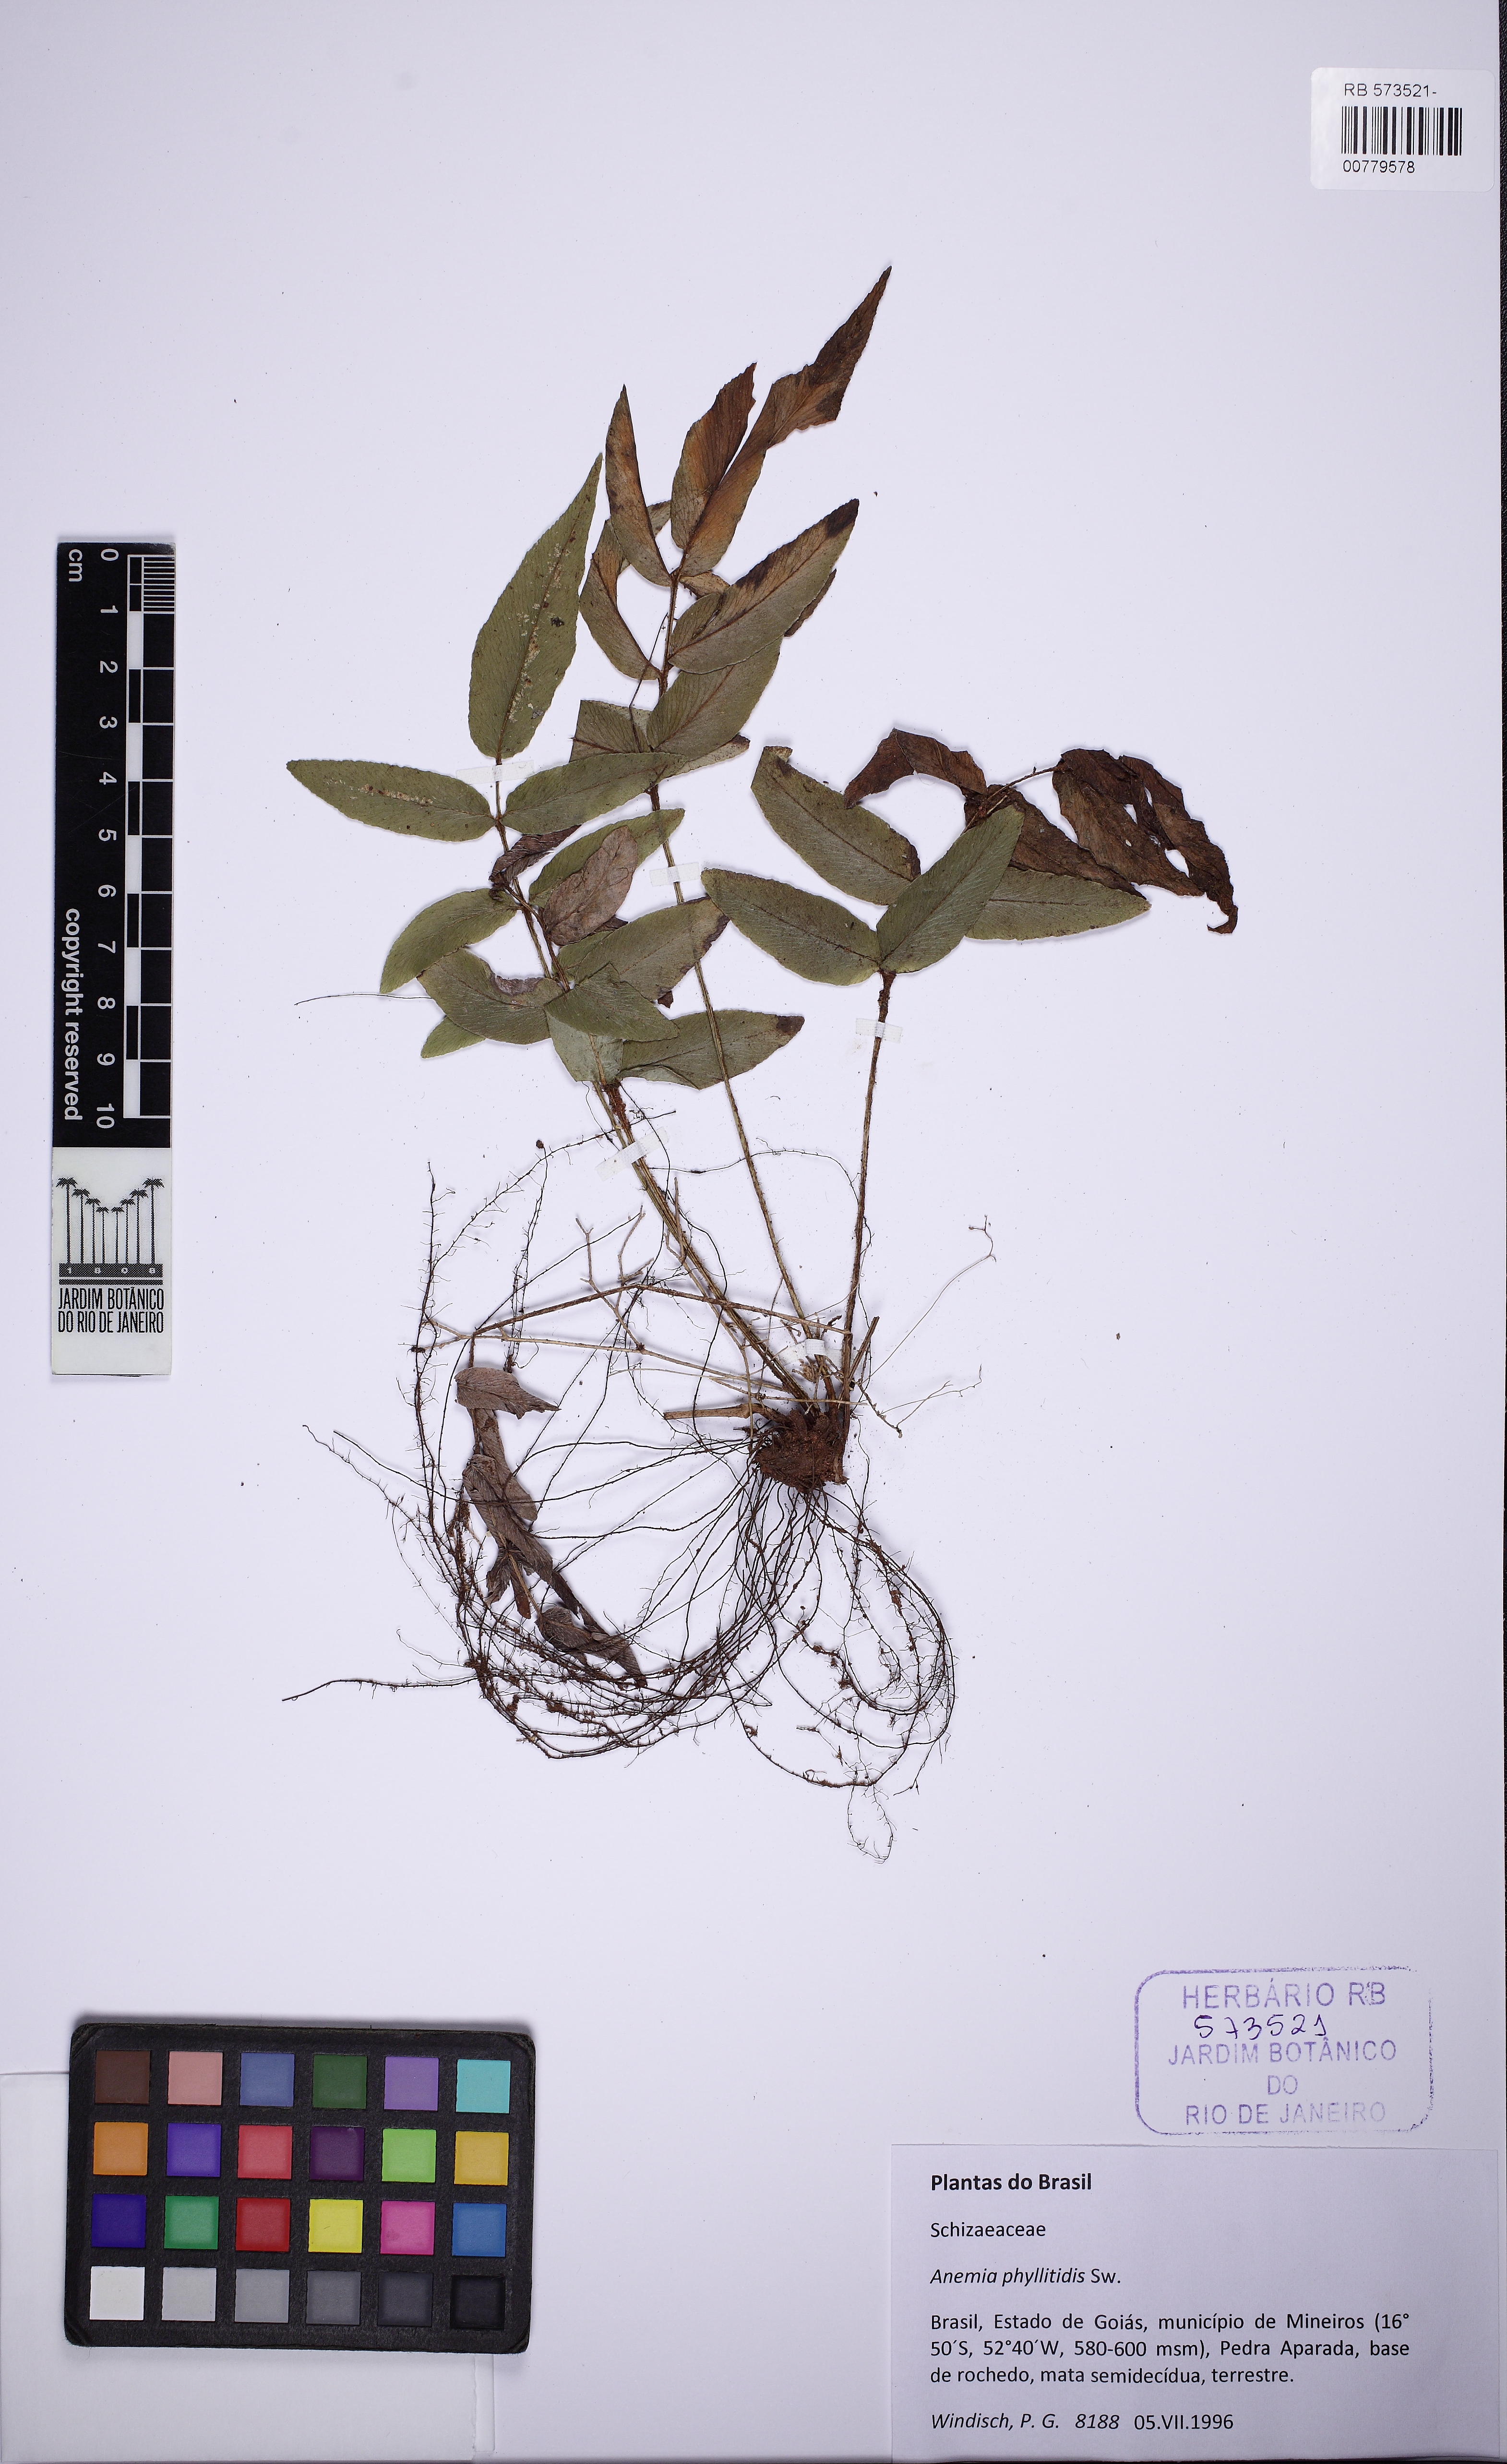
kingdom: Plantae
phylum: Tracheophyta
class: Polypodiopsida
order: Schizaeales
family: Anemiaceae
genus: Anemia
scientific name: Anemia phyllitidis
